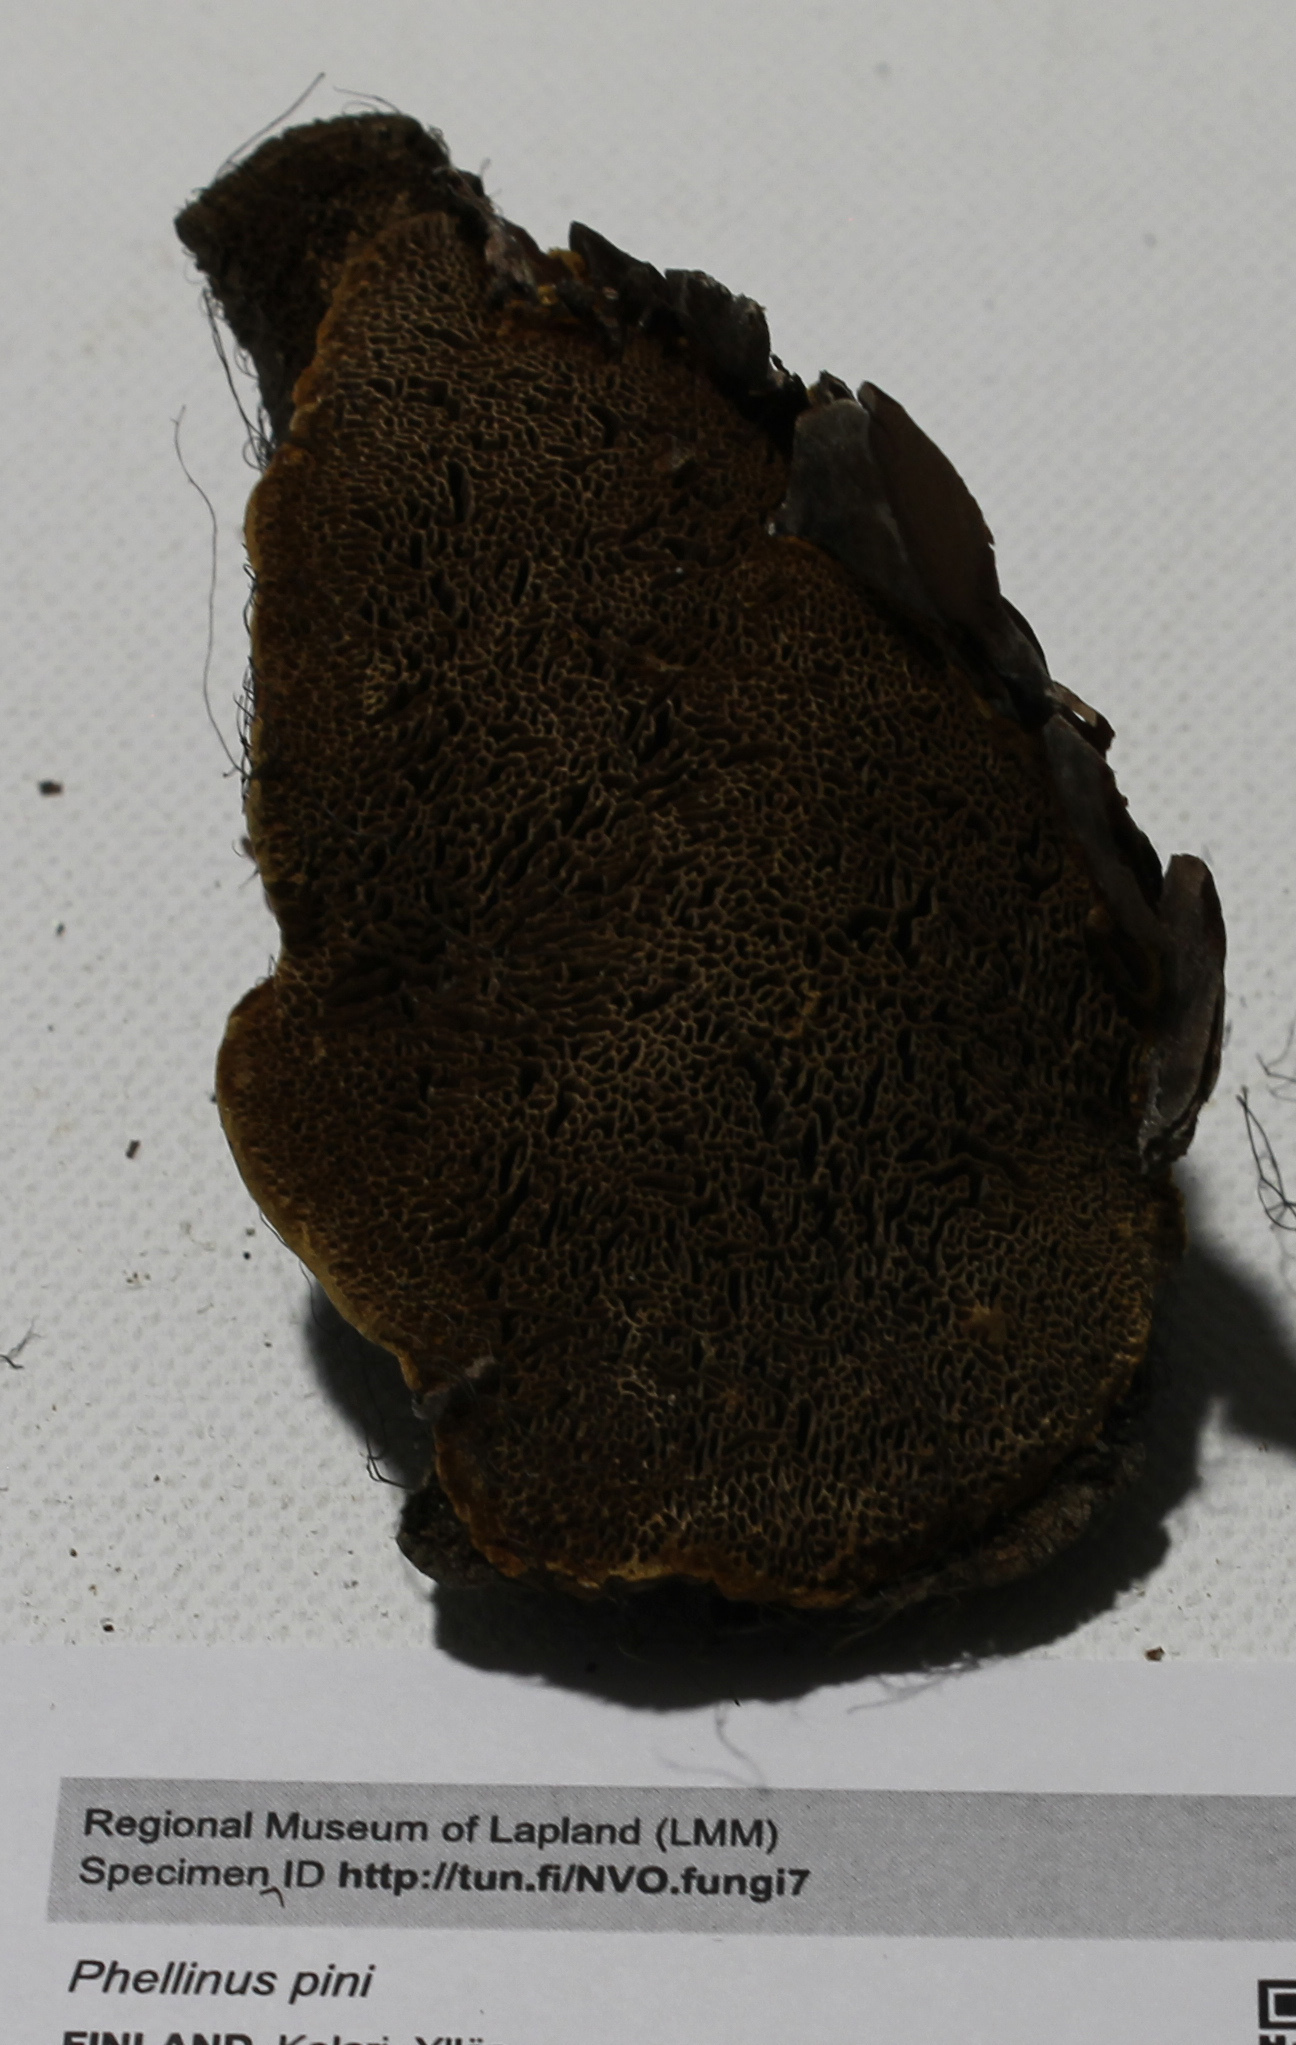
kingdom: Fungi
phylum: Basidiomycota
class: Agaricomycetes
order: Hymenochaetales
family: Hymenochaetaceae
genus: Porodaedalea
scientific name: Porodaedalea pini
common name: Pine bracket
